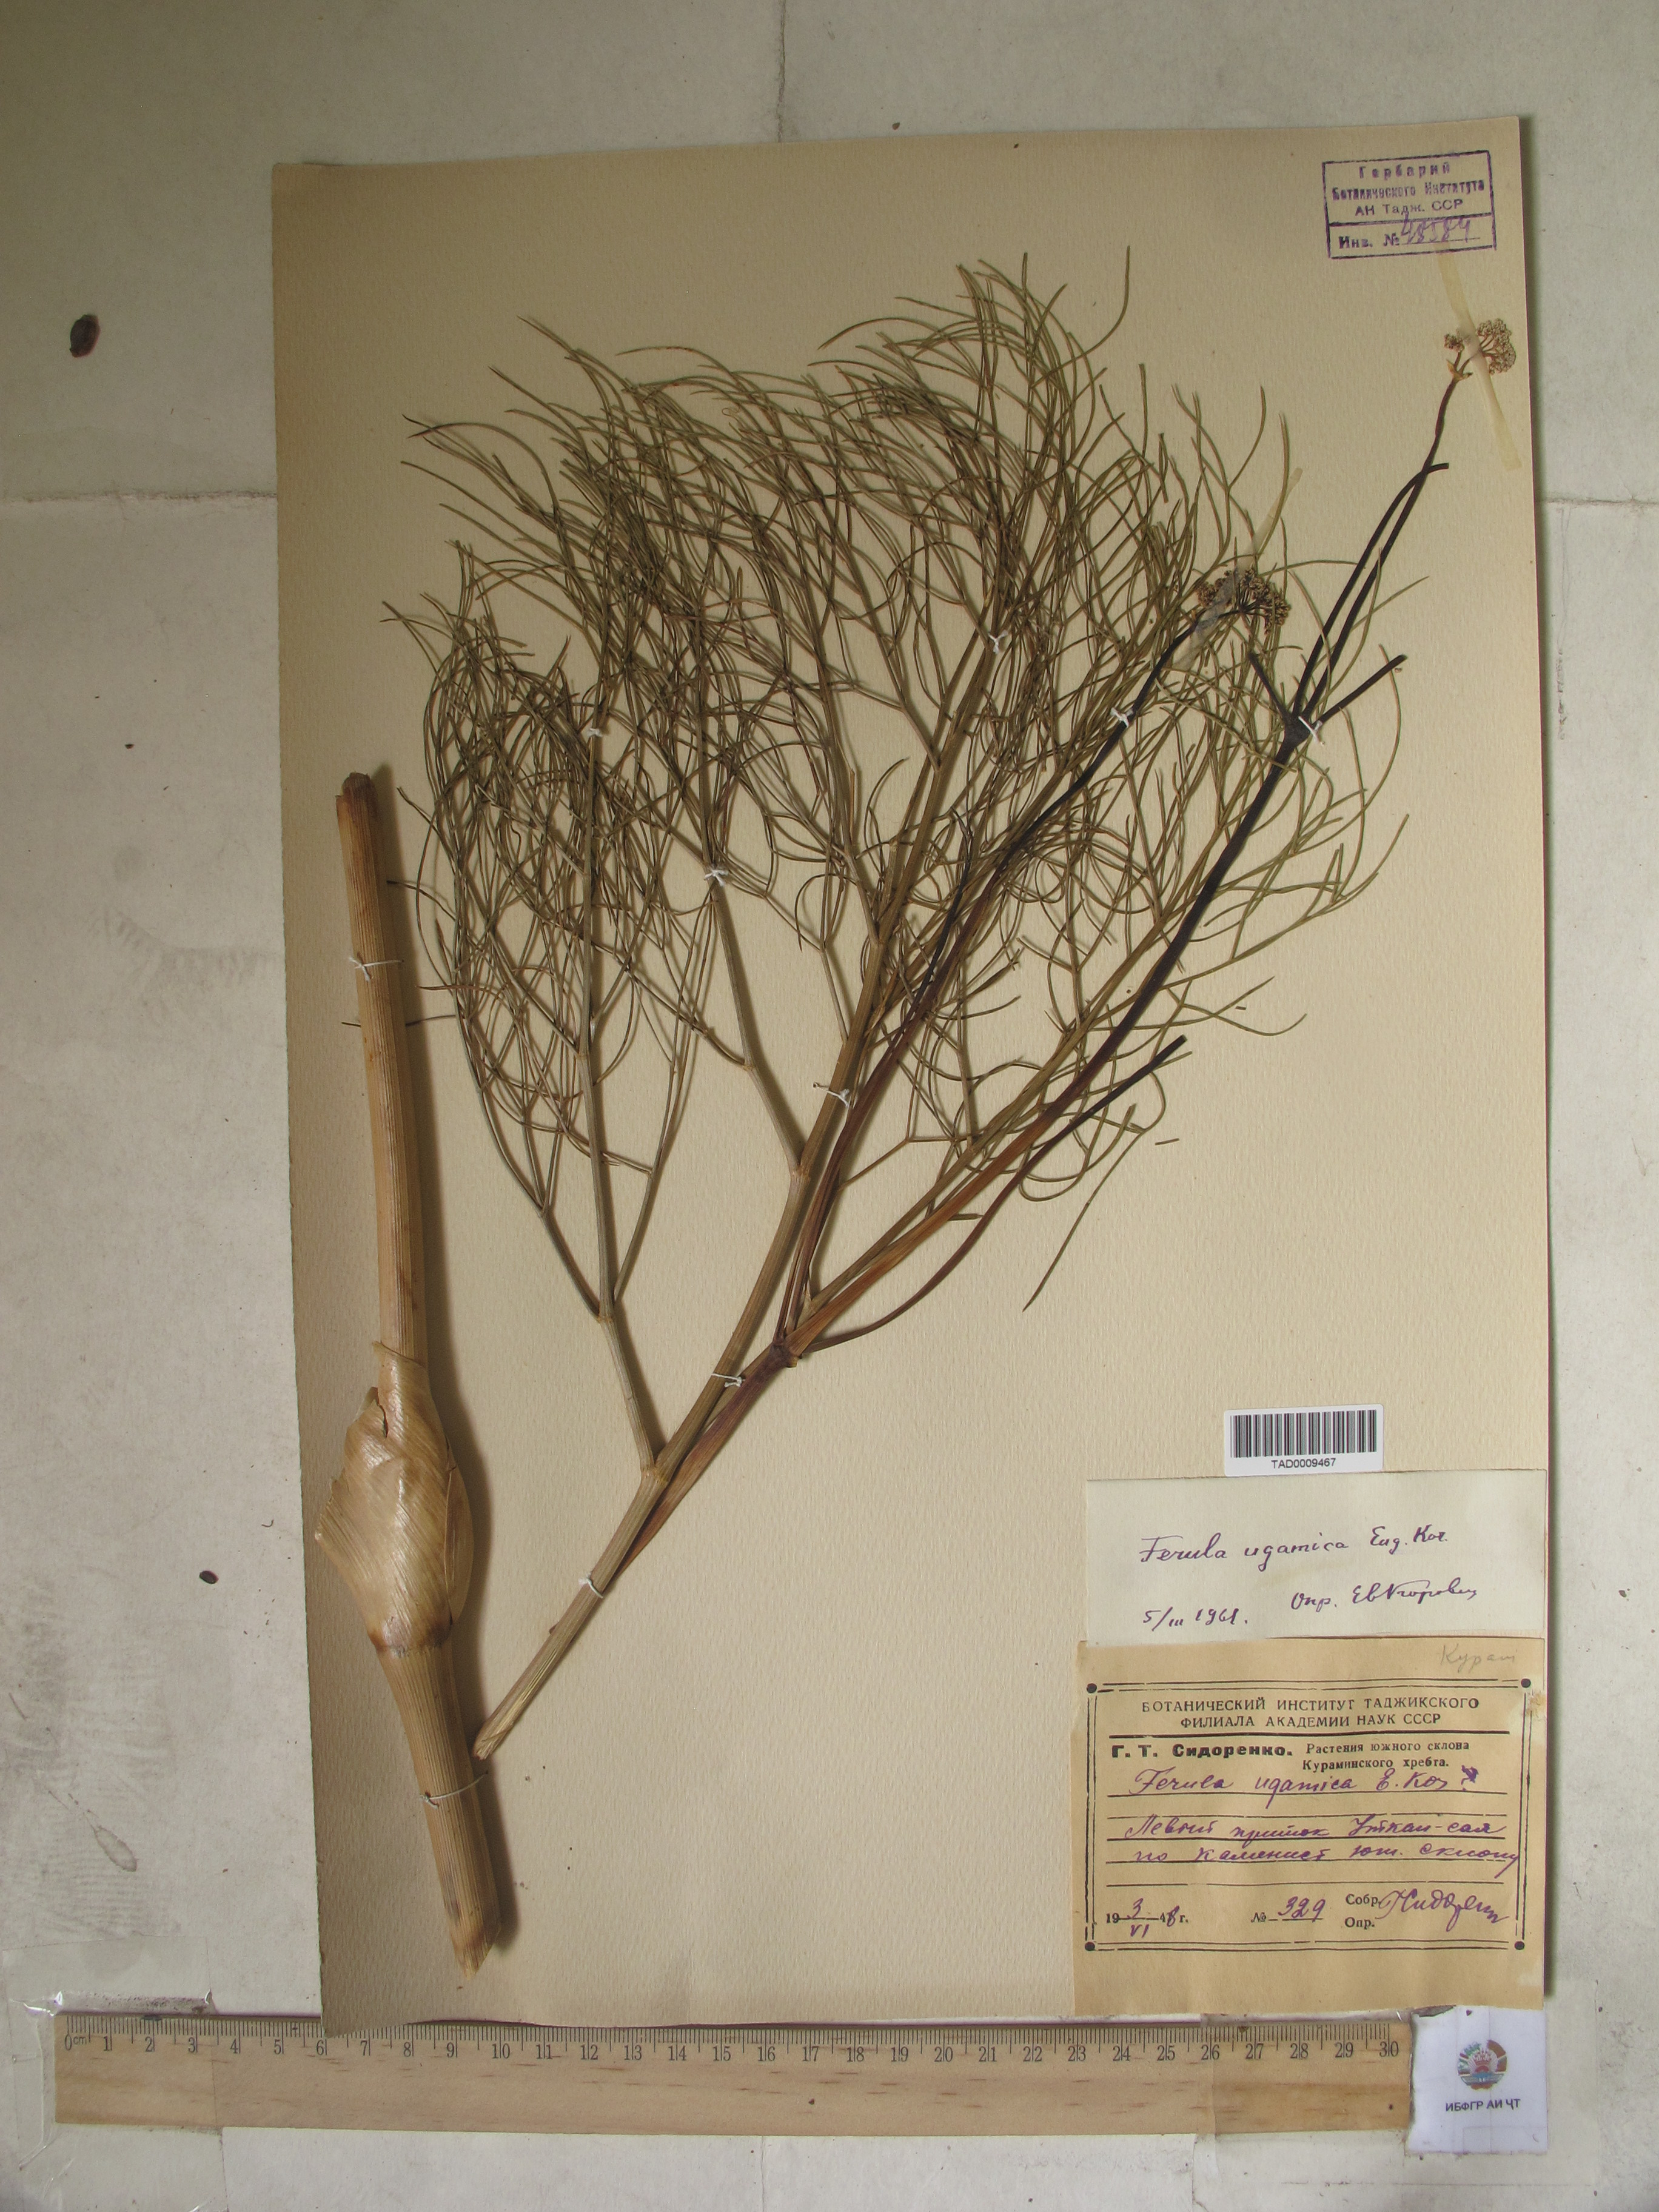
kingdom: Plantae
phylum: Tracheophyta
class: Magnoliopsida
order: Apiales
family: Apiaceae
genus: Ferula
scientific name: Ferula ugamica
